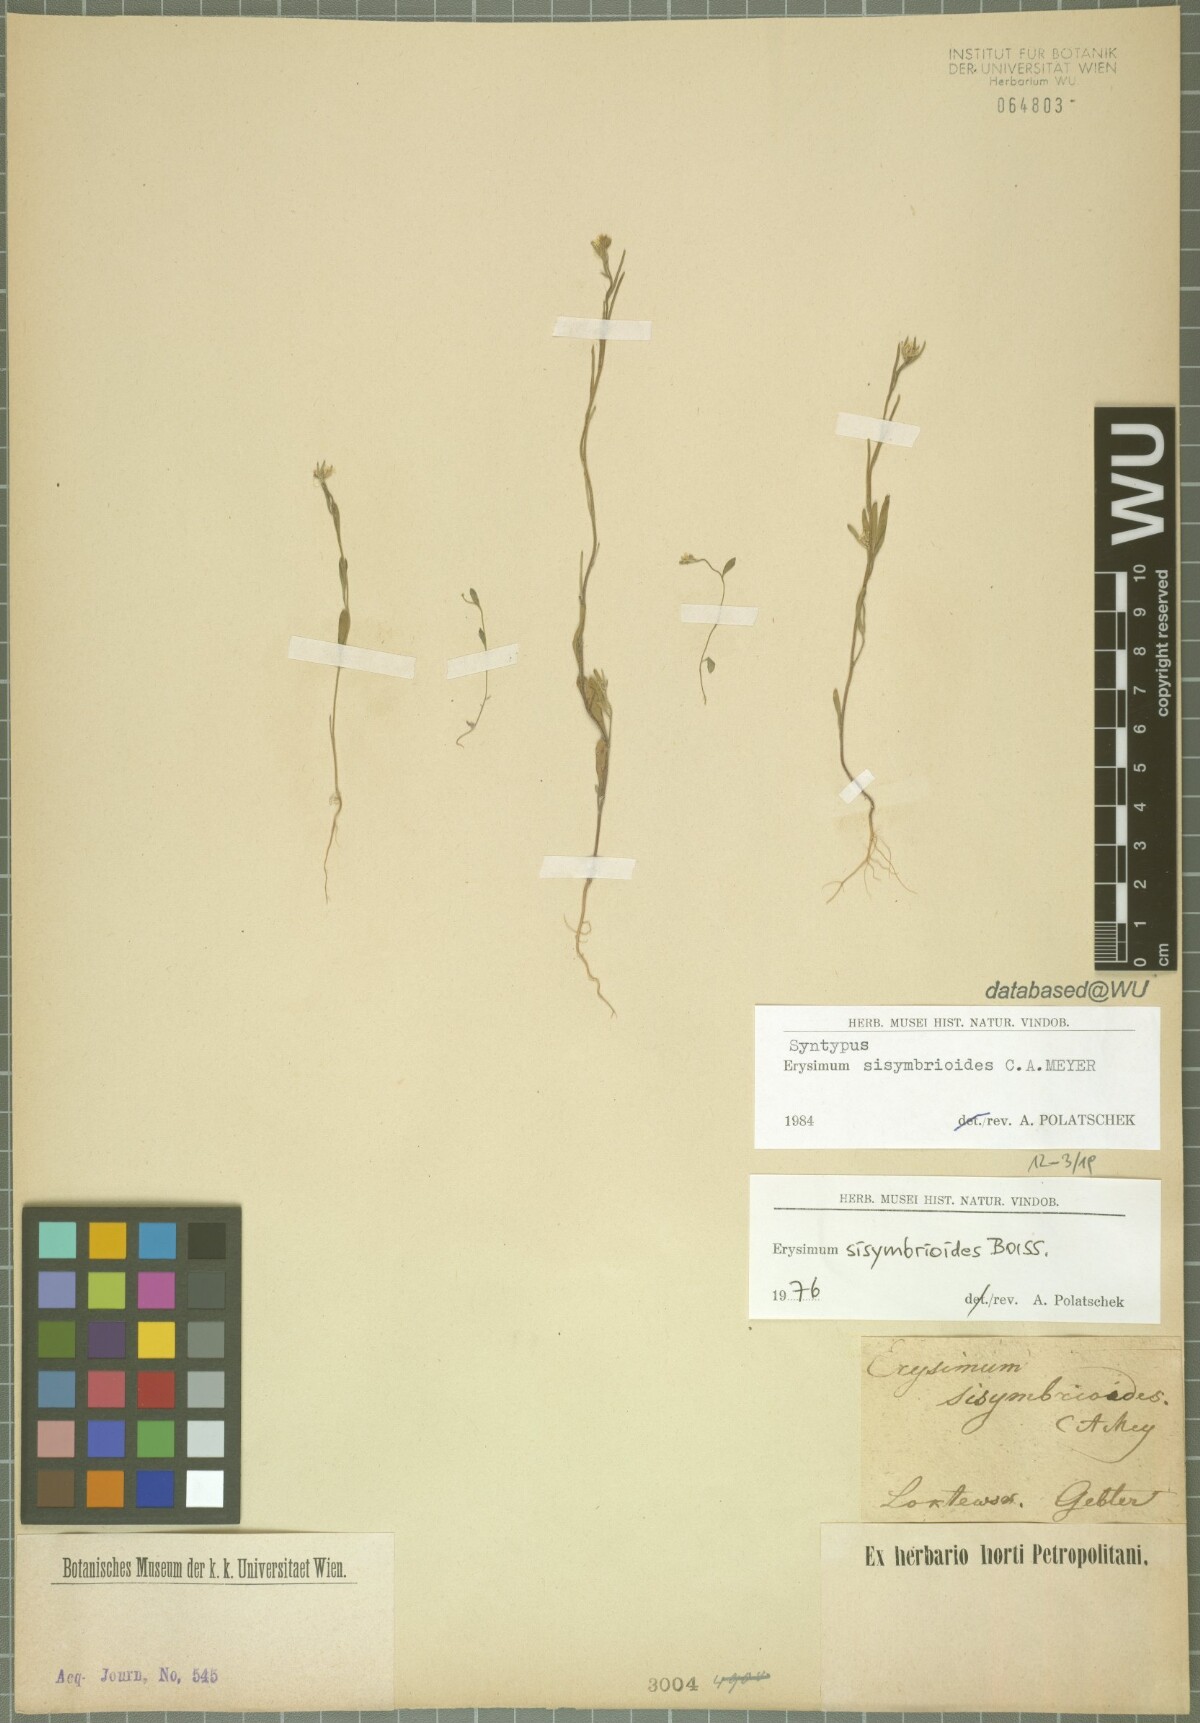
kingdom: Plantae
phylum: Tracheophyta
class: Magnoliopsida
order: Brassicales
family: Brassicaceae
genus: Erysimum
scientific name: Erysimum sisymbrioides
